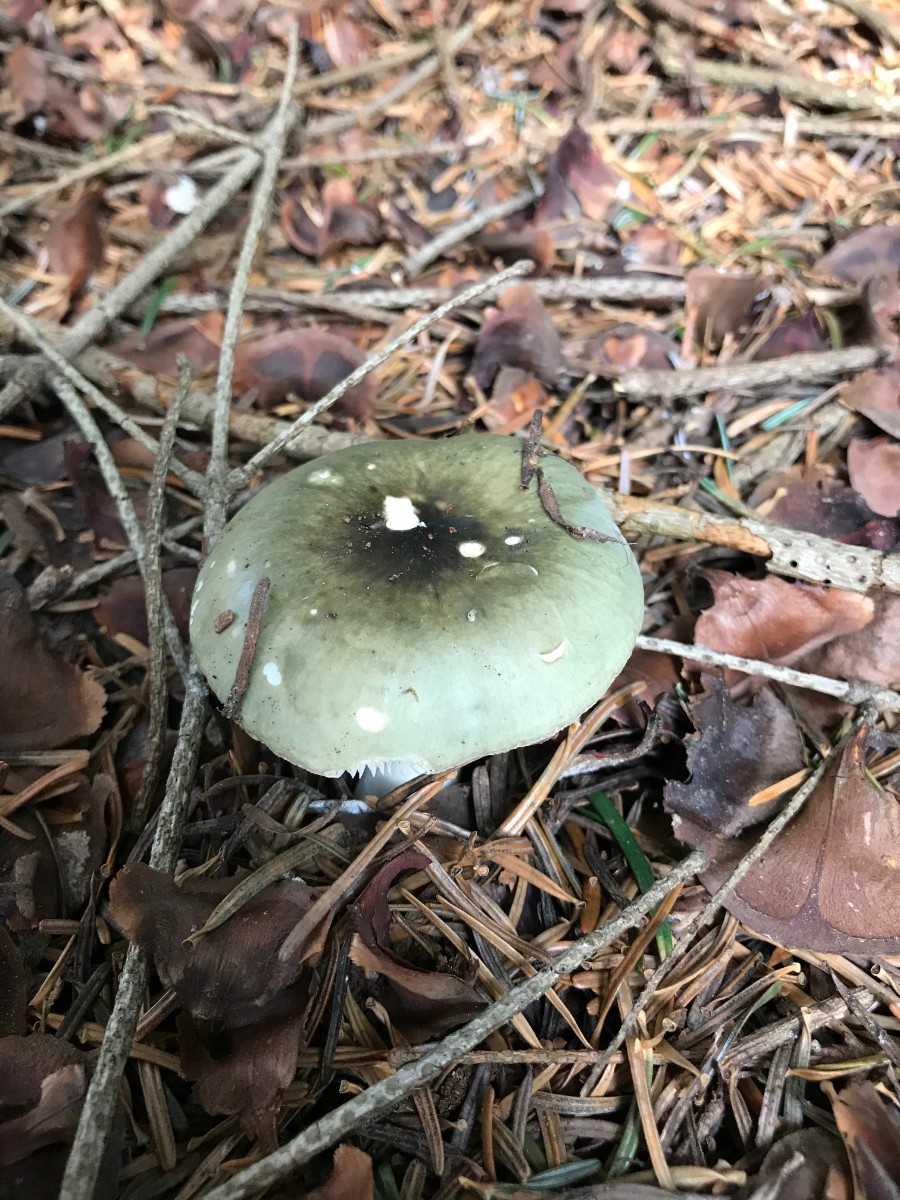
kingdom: Fungi
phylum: Basidiomycota
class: Agaricomycetes
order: Russulales
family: Russulaceae
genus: Russula
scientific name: Russula aeruginea
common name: græsgrøn skørhat
